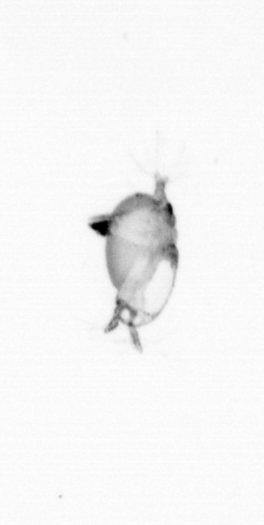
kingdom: Animalia
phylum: Arthropoda
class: Copepoda
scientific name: Copepoda
